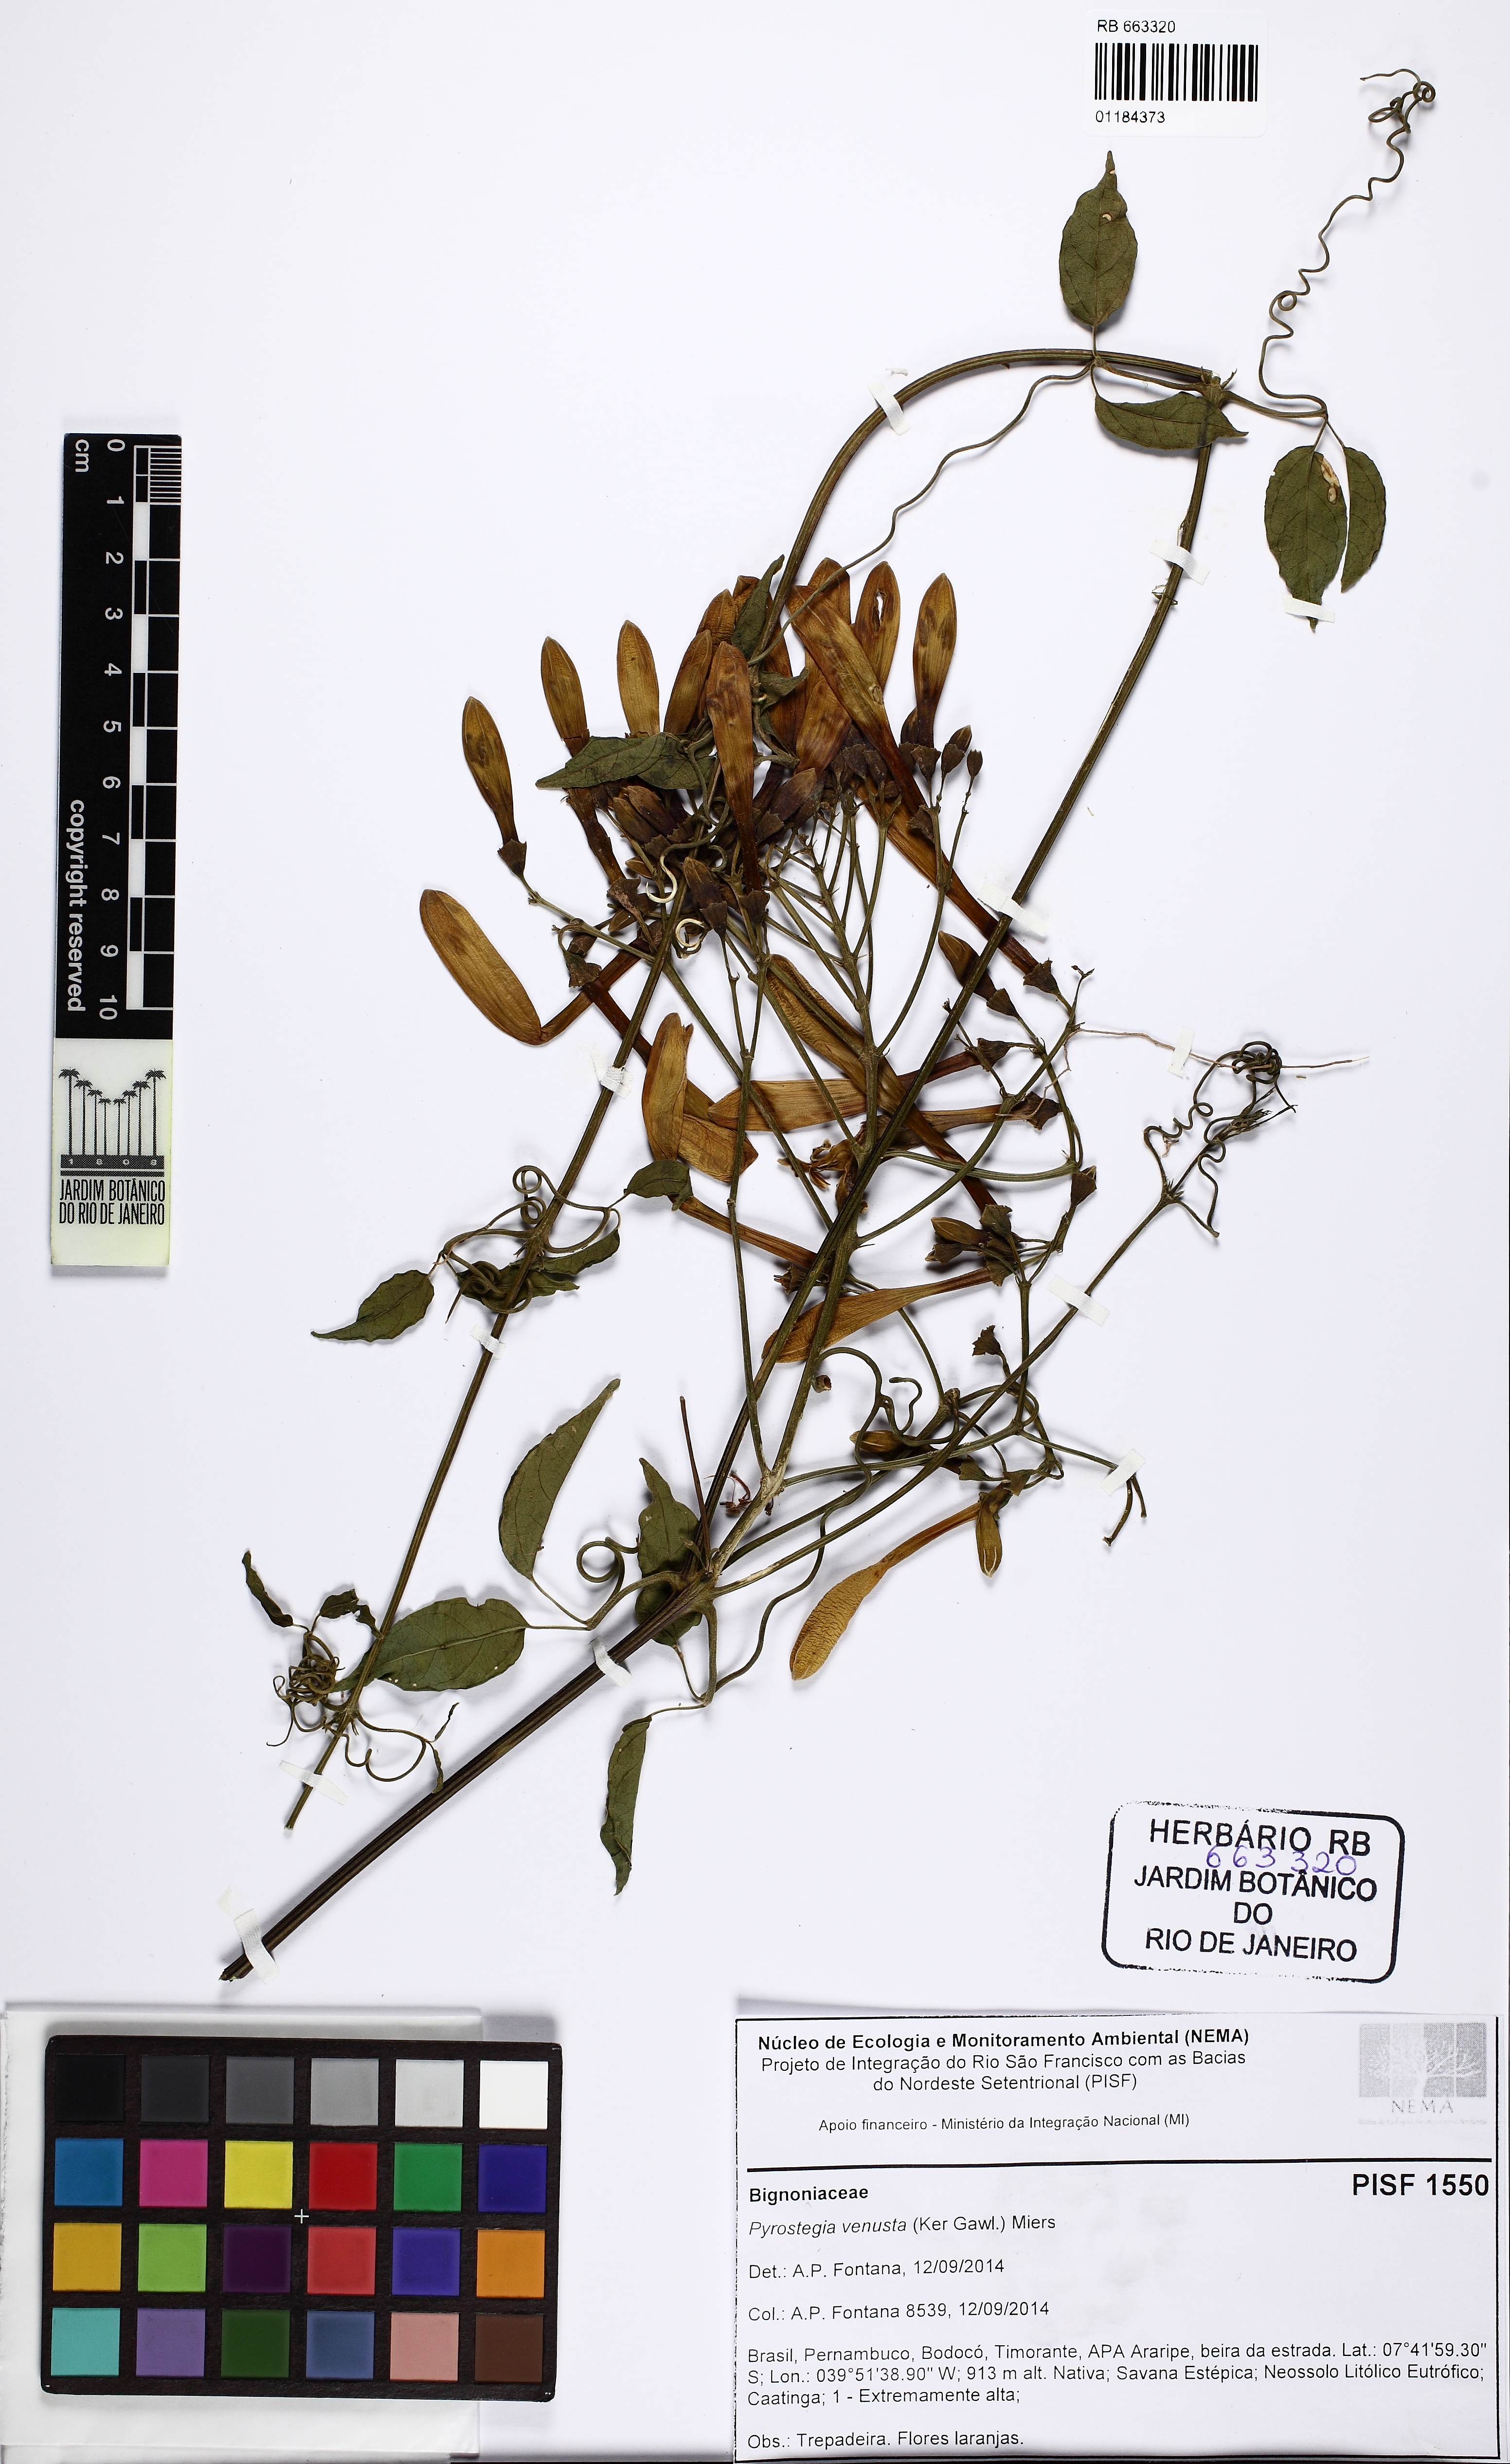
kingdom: Plantae
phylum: Tracheophyta
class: Magnoliopsida
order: Lamiales
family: Bignoniaceae
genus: Pyrostegia
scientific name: Pyrostegia venusta
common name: Flamevine
